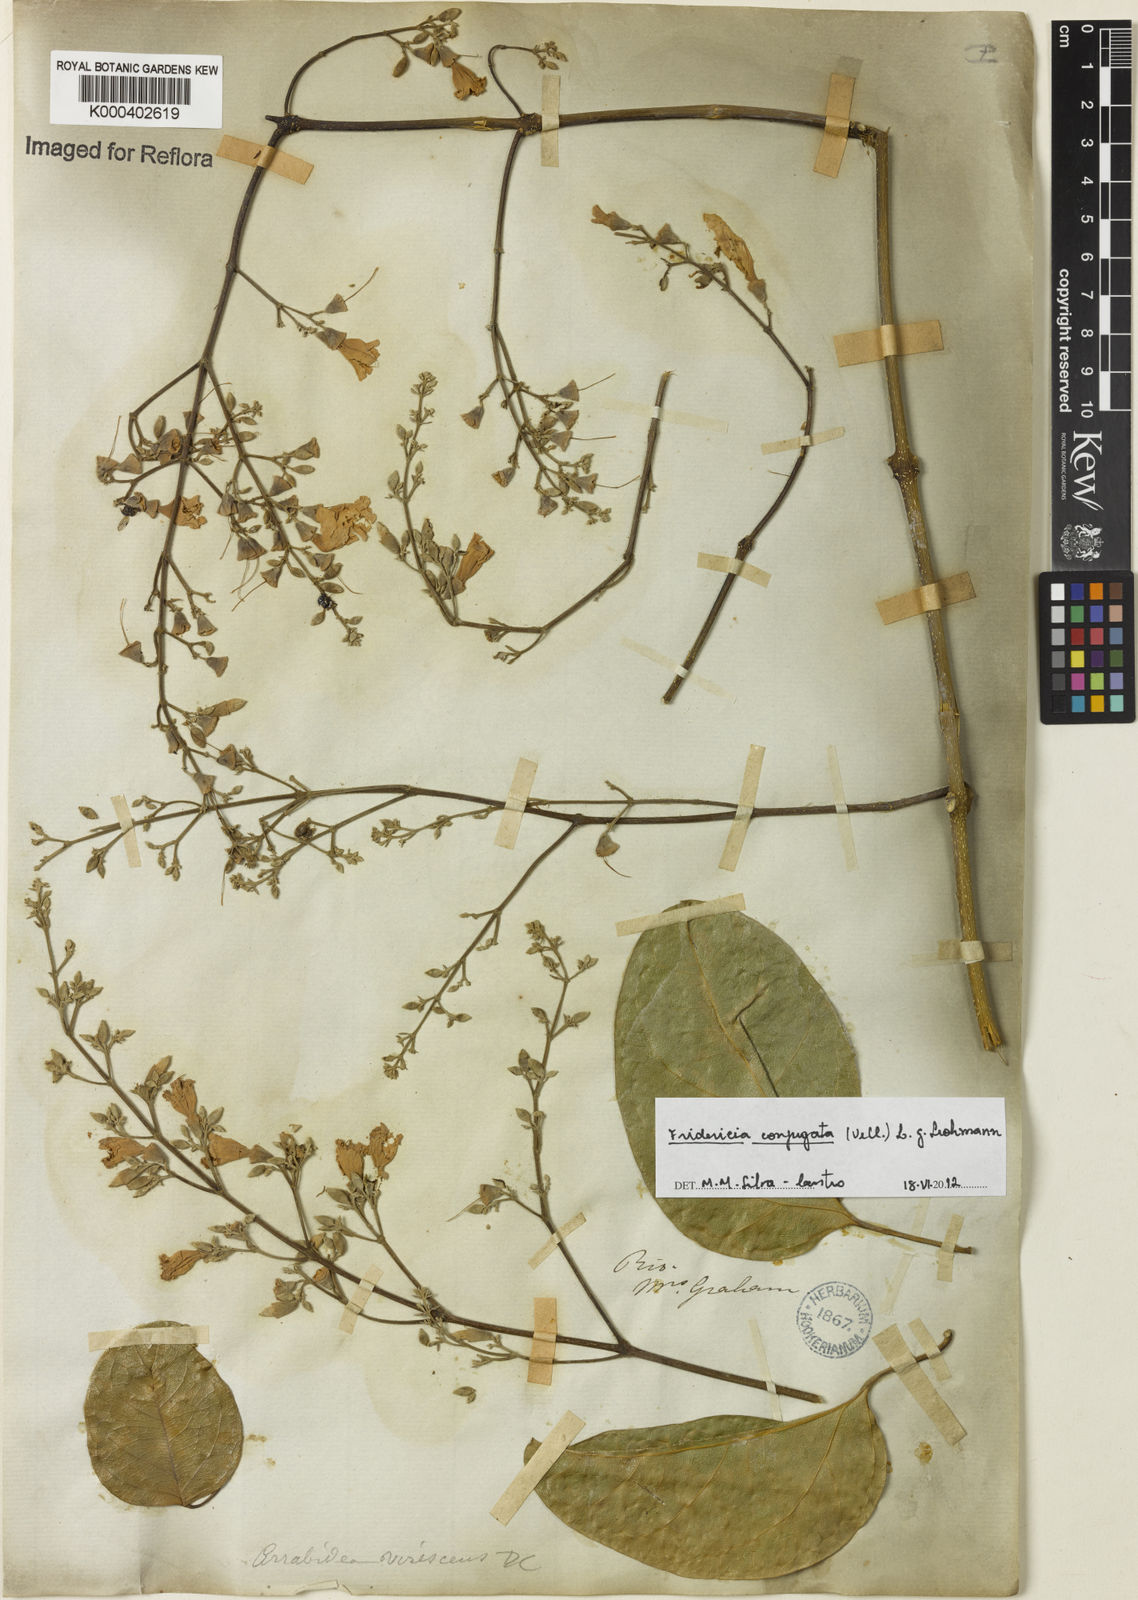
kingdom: Plantae
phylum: Tracheophyta
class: Magnoliopsida
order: Lamiales
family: Bignoniaceae
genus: Fridericia
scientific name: Fridericia conjugata
